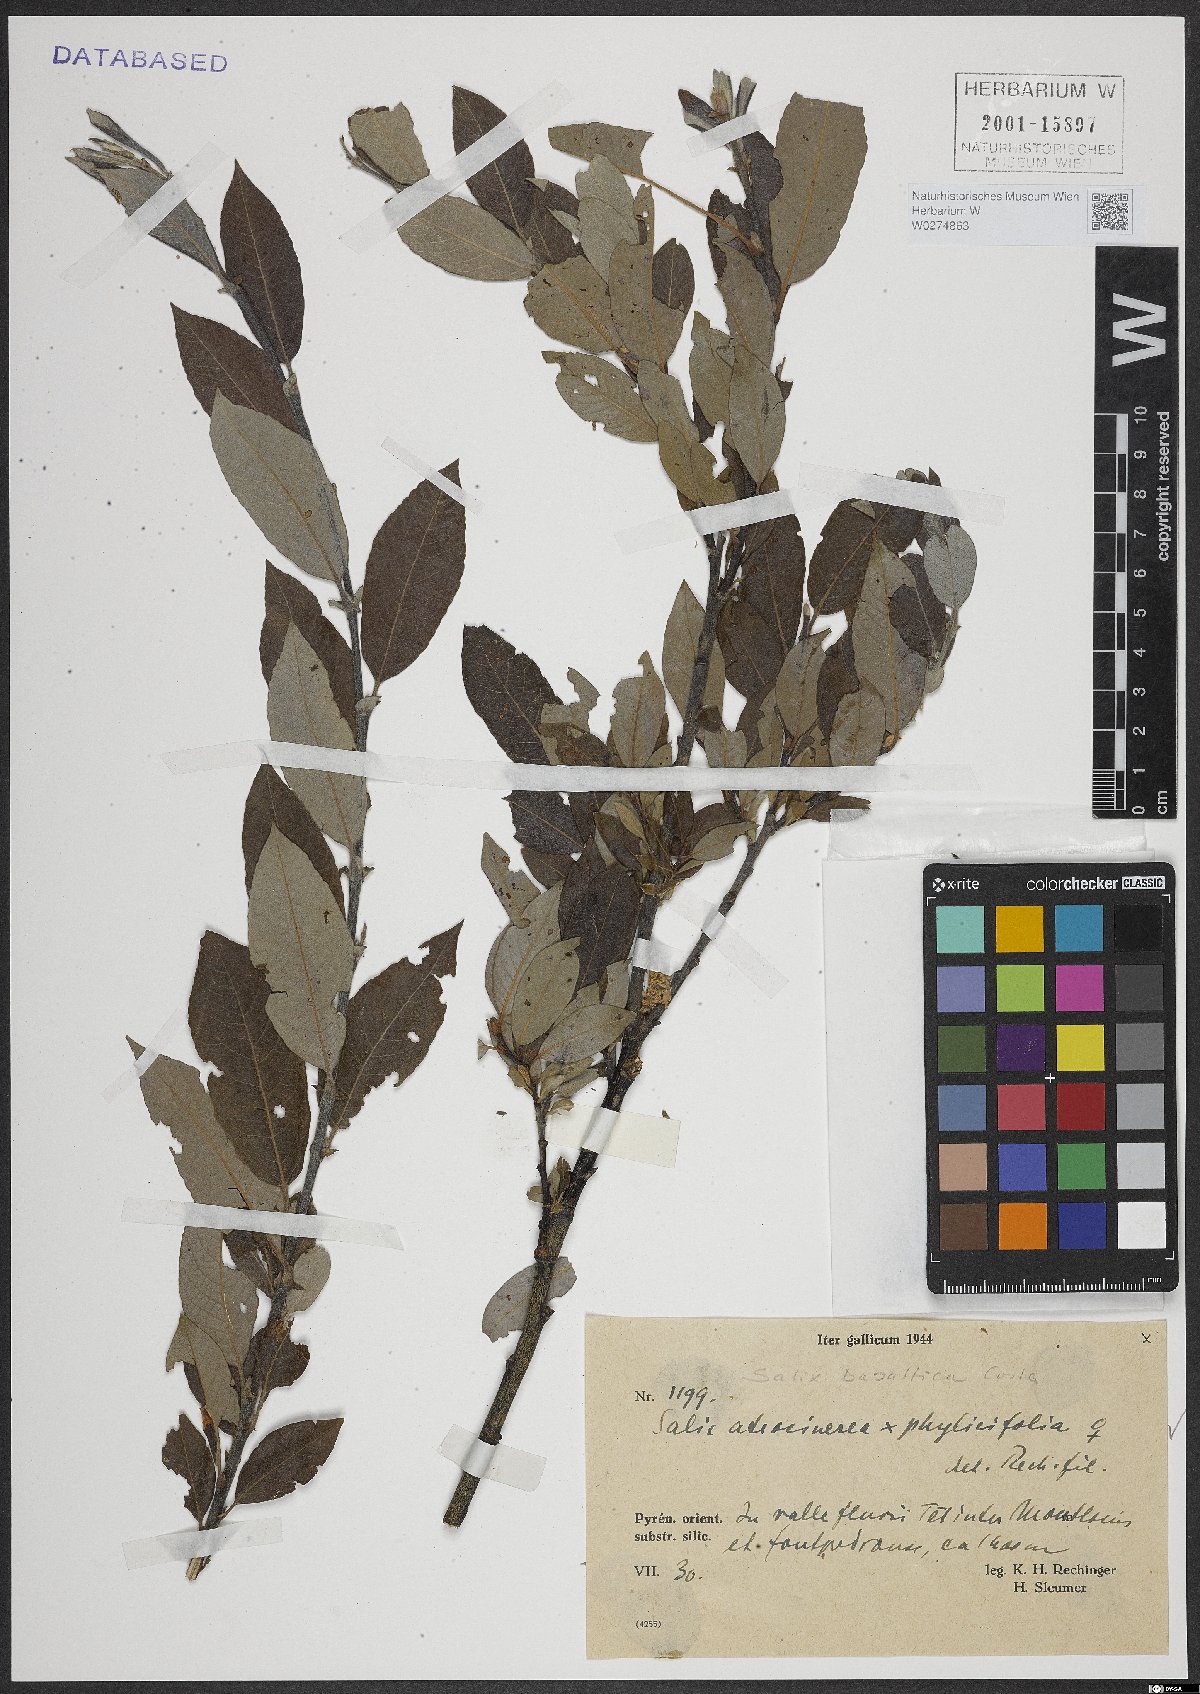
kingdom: Plantae
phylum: Tracheophyta
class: Magnoliopsida
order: Malpighiales
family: Salicaceae
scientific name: Salicaceae
